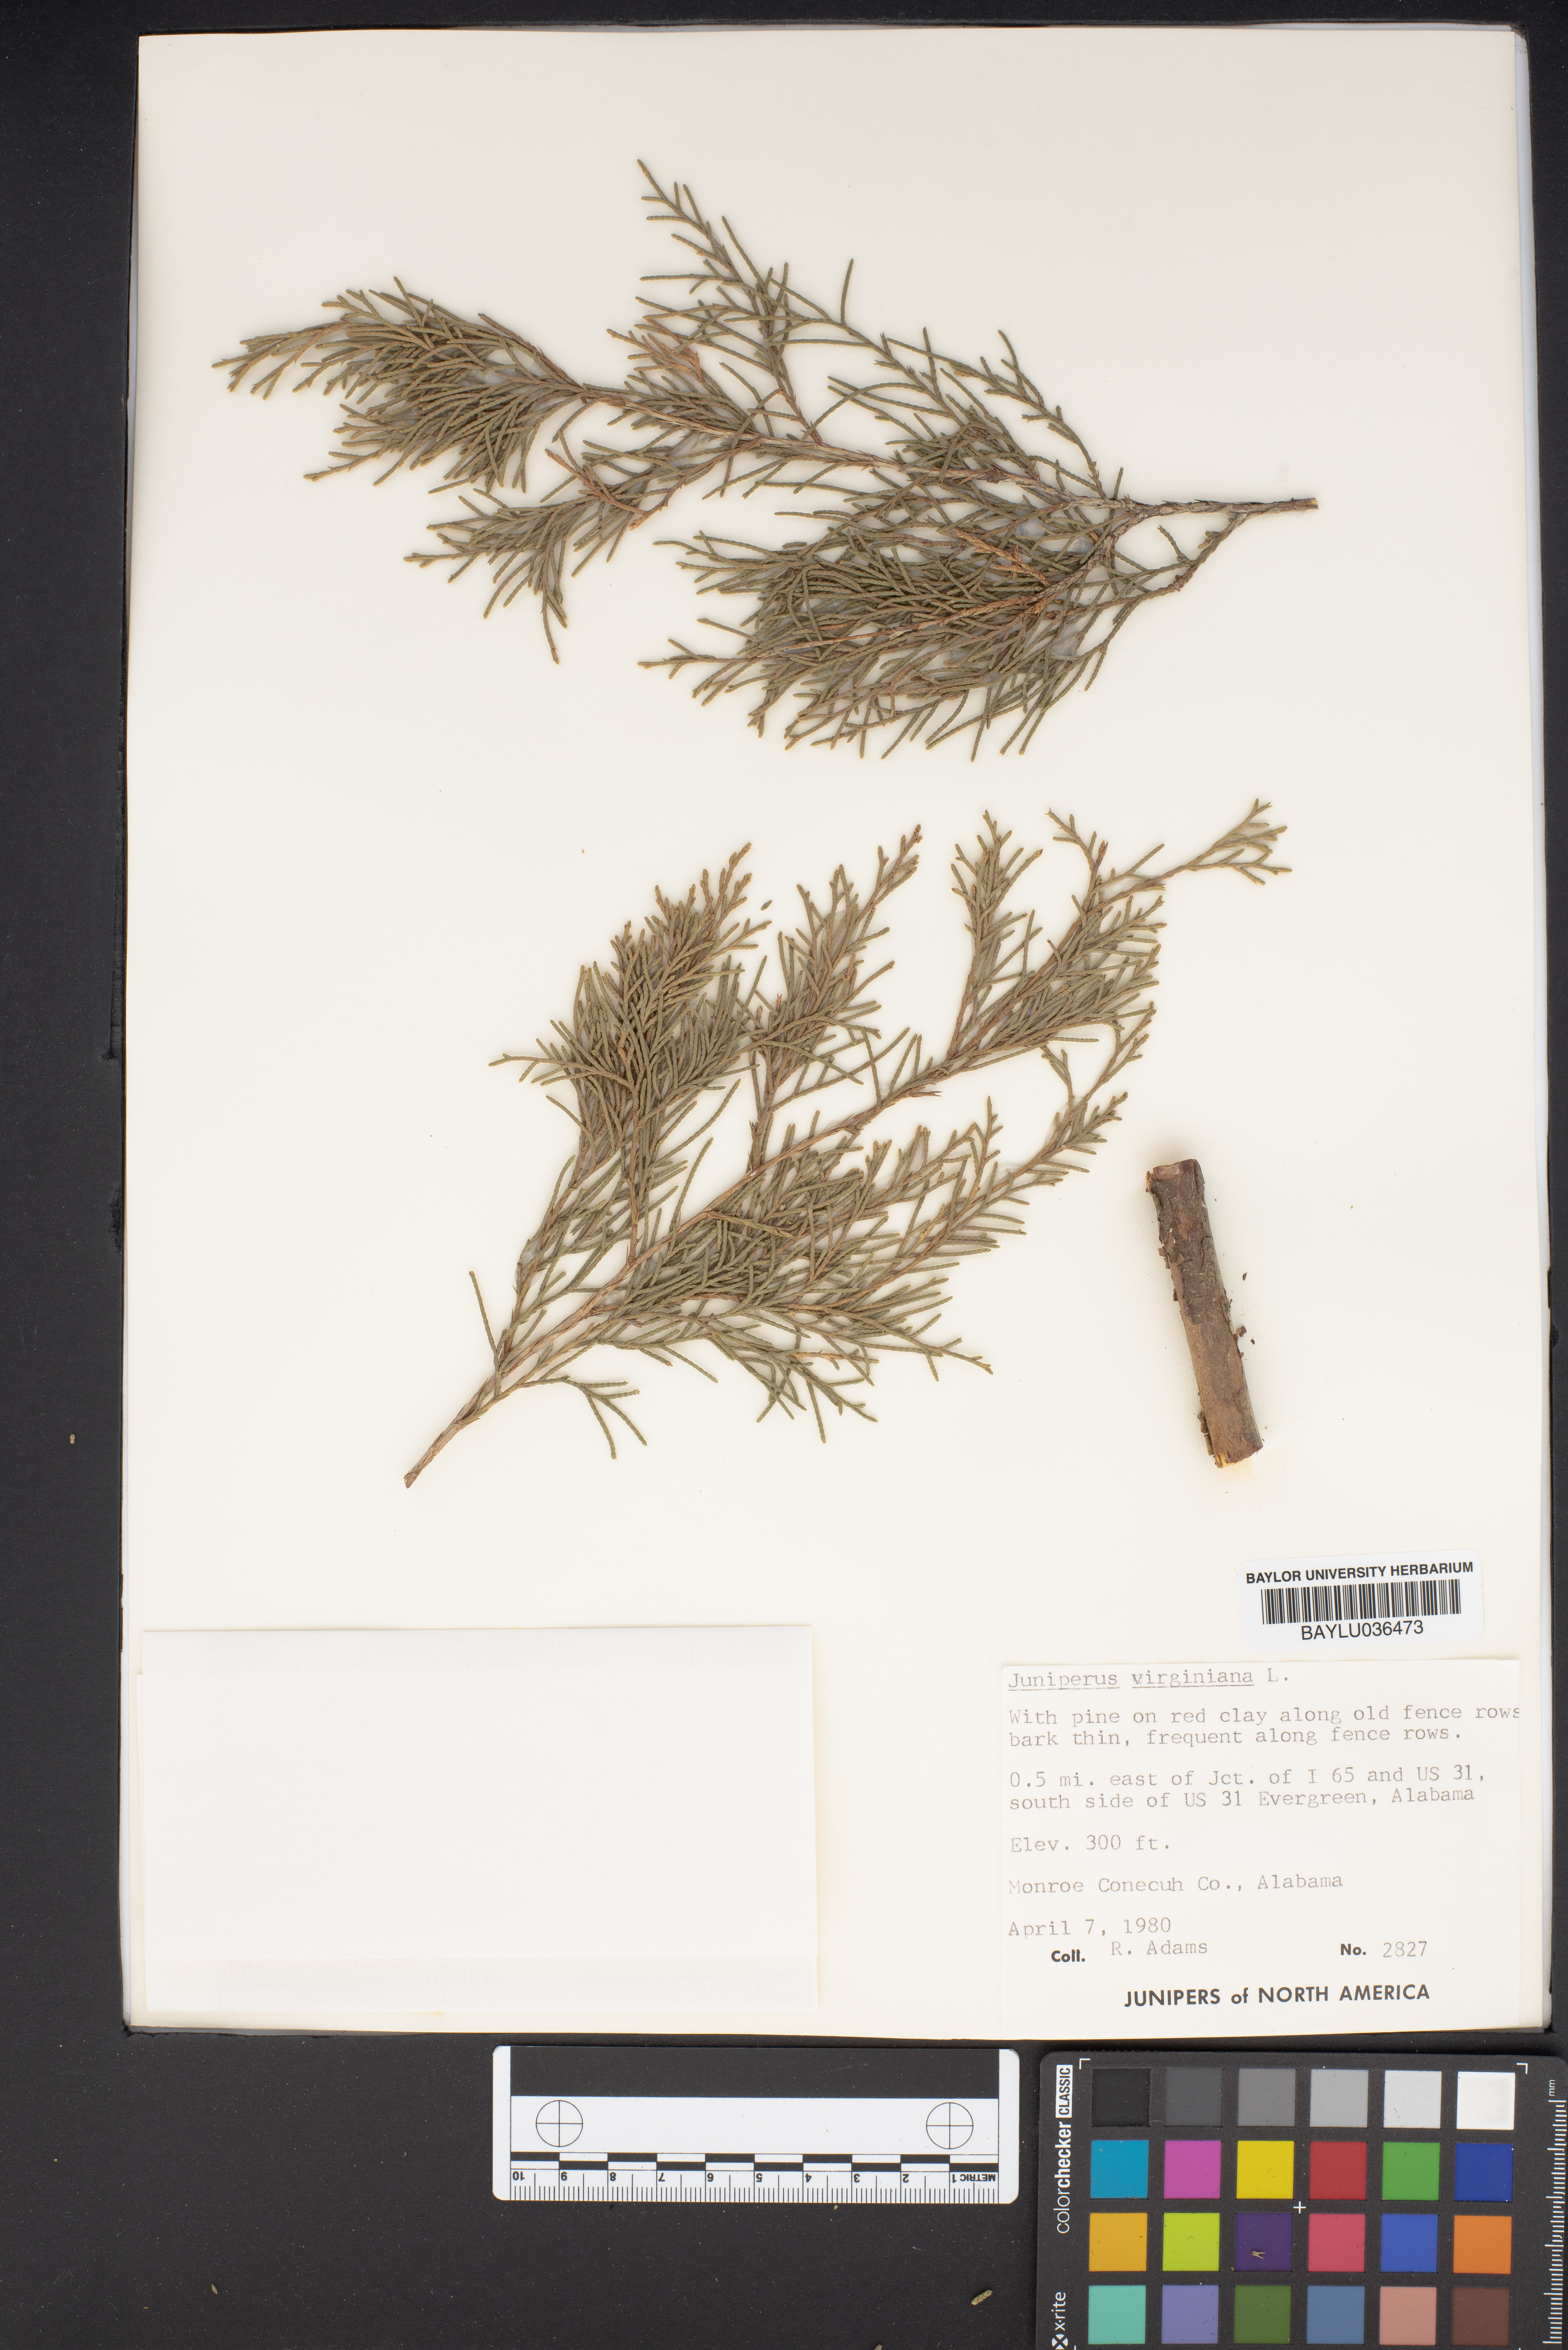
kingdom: Plantae
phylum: Tracheophyta
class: Pinopsida
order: Pinales
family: Cupressaceae
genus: Juniperus
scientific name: Juniperus virginiana
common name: Red juniper
